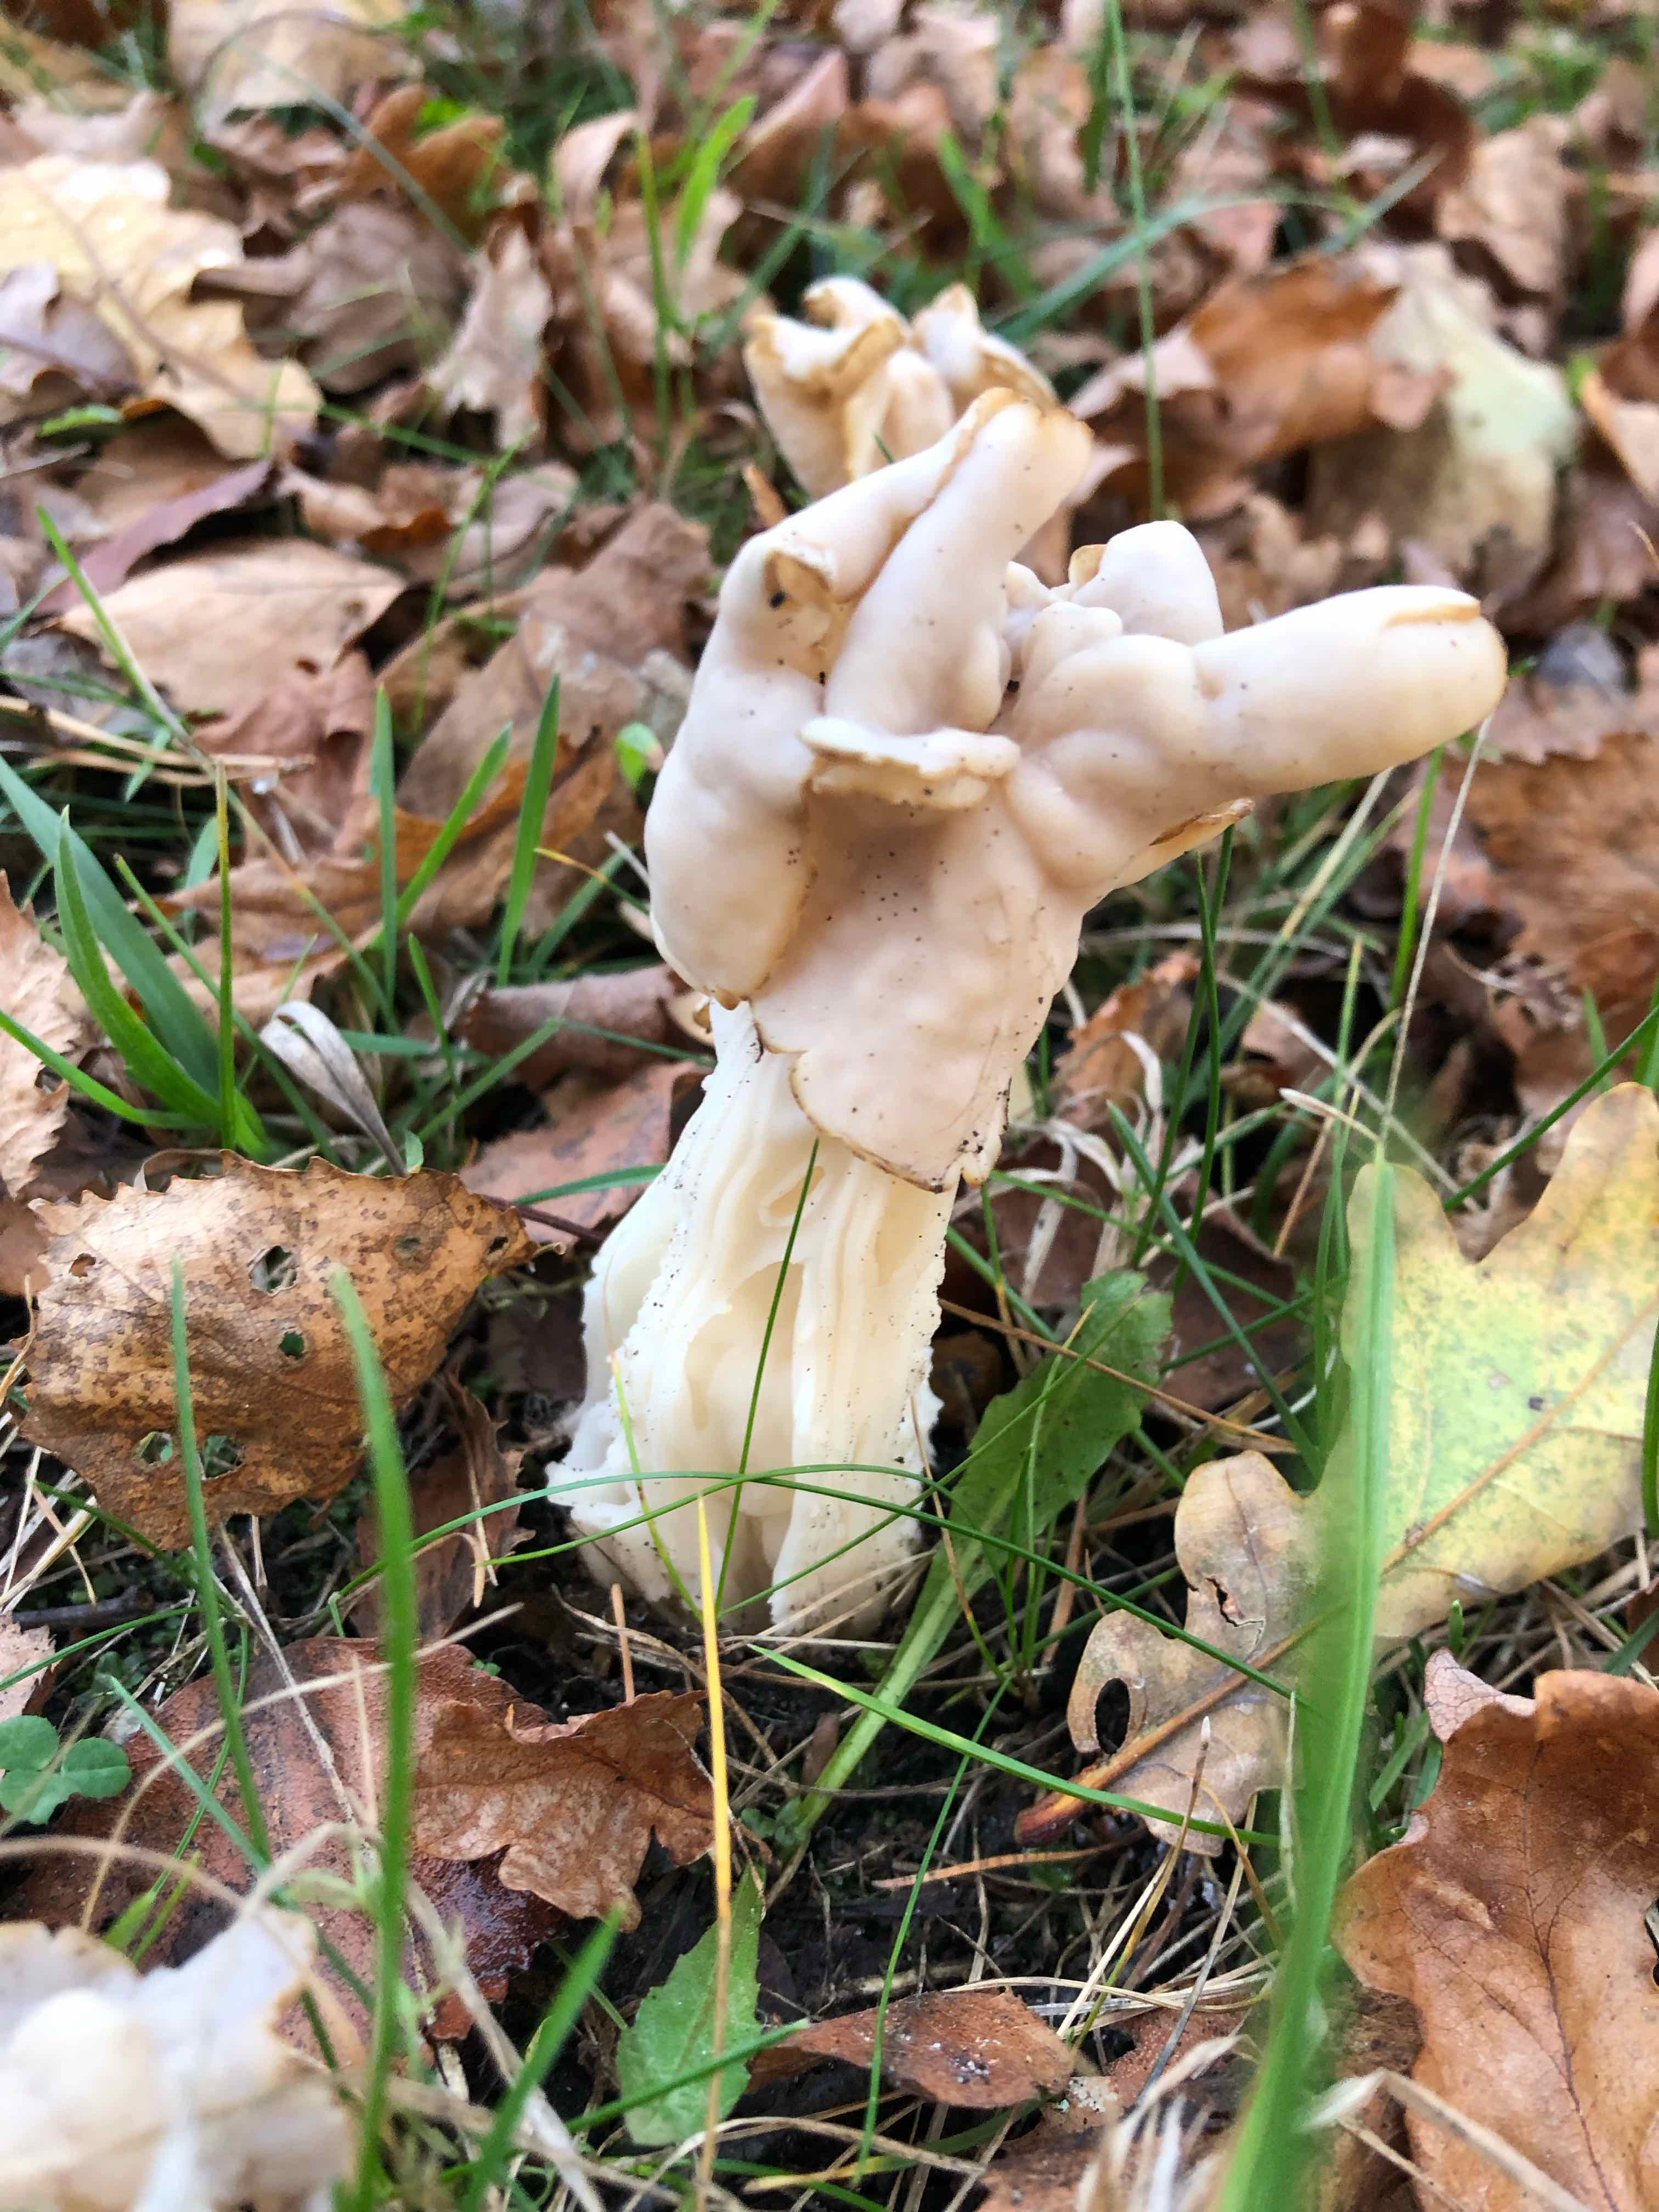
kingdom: Fungi
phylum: Ascomycota
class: Pezizomycetes
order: Pezizales
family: Helvellaceae
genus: Helvella
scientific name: Helvella crispa
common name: kruset foldhat
